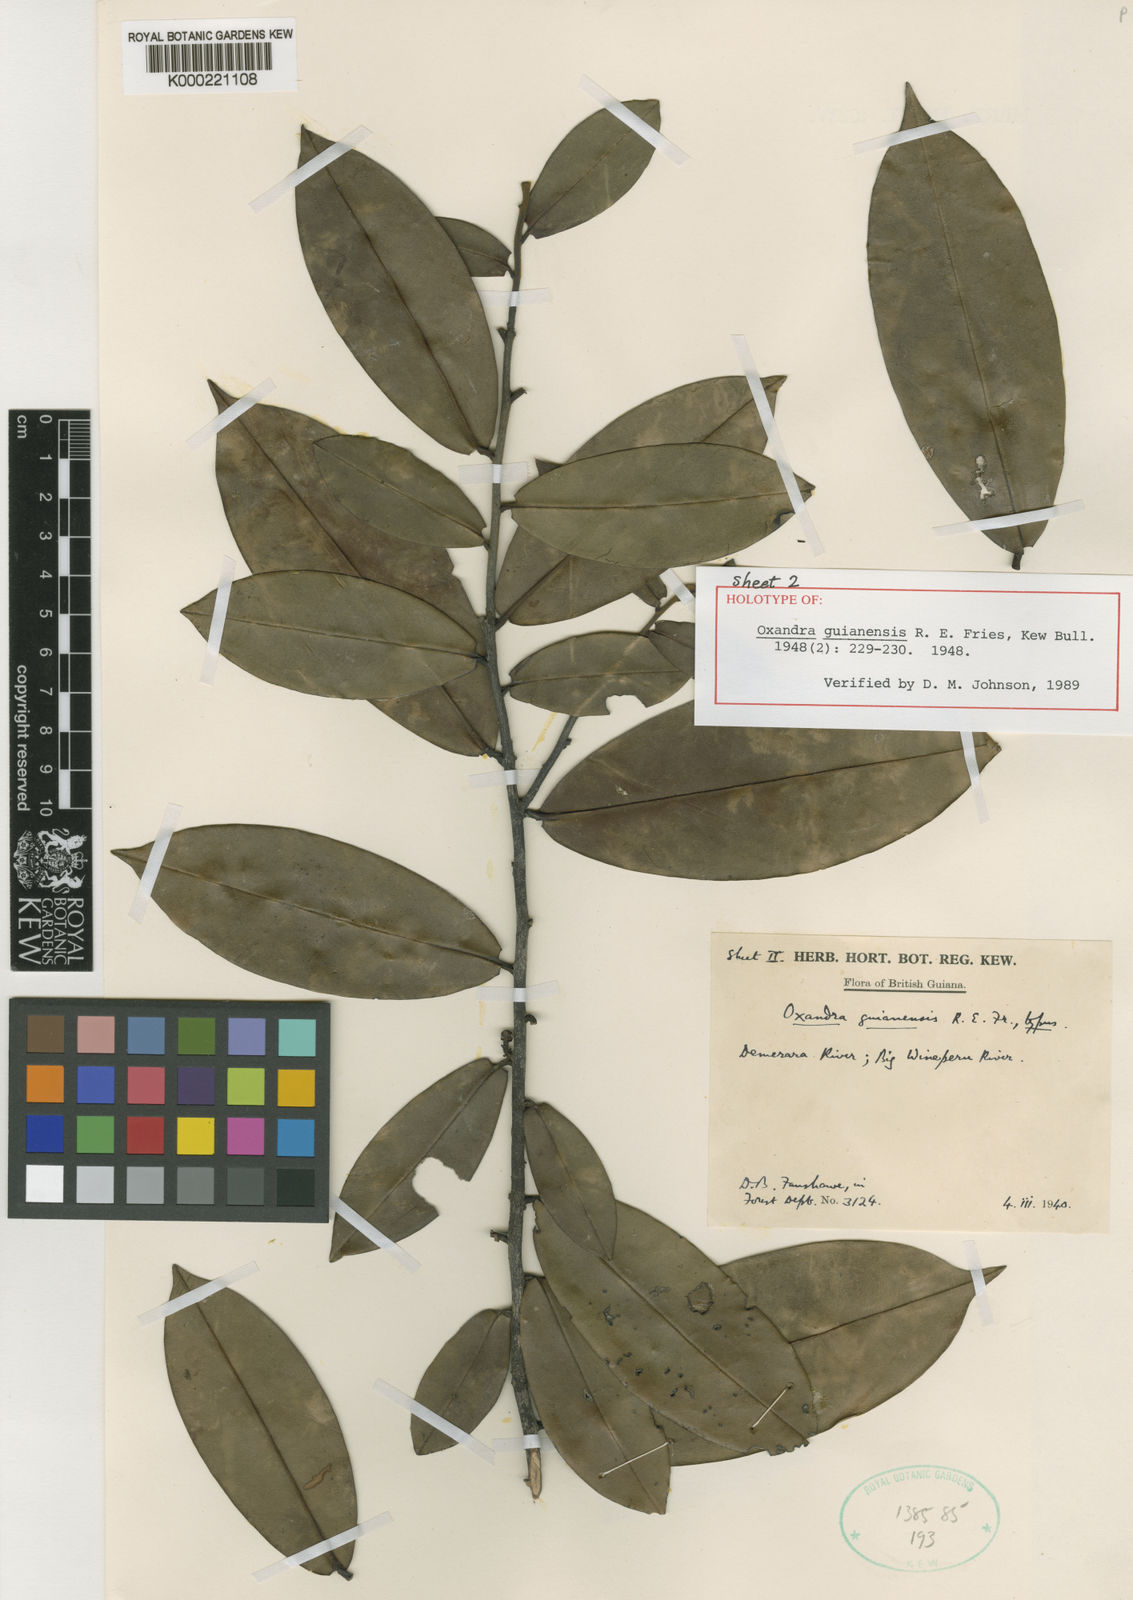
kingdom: Plantae
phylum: Tracheophyta
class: Magnoliopsida
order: Magnoliales
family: Annonaceae
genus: Oxandra
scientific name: Oxandra guianensis
